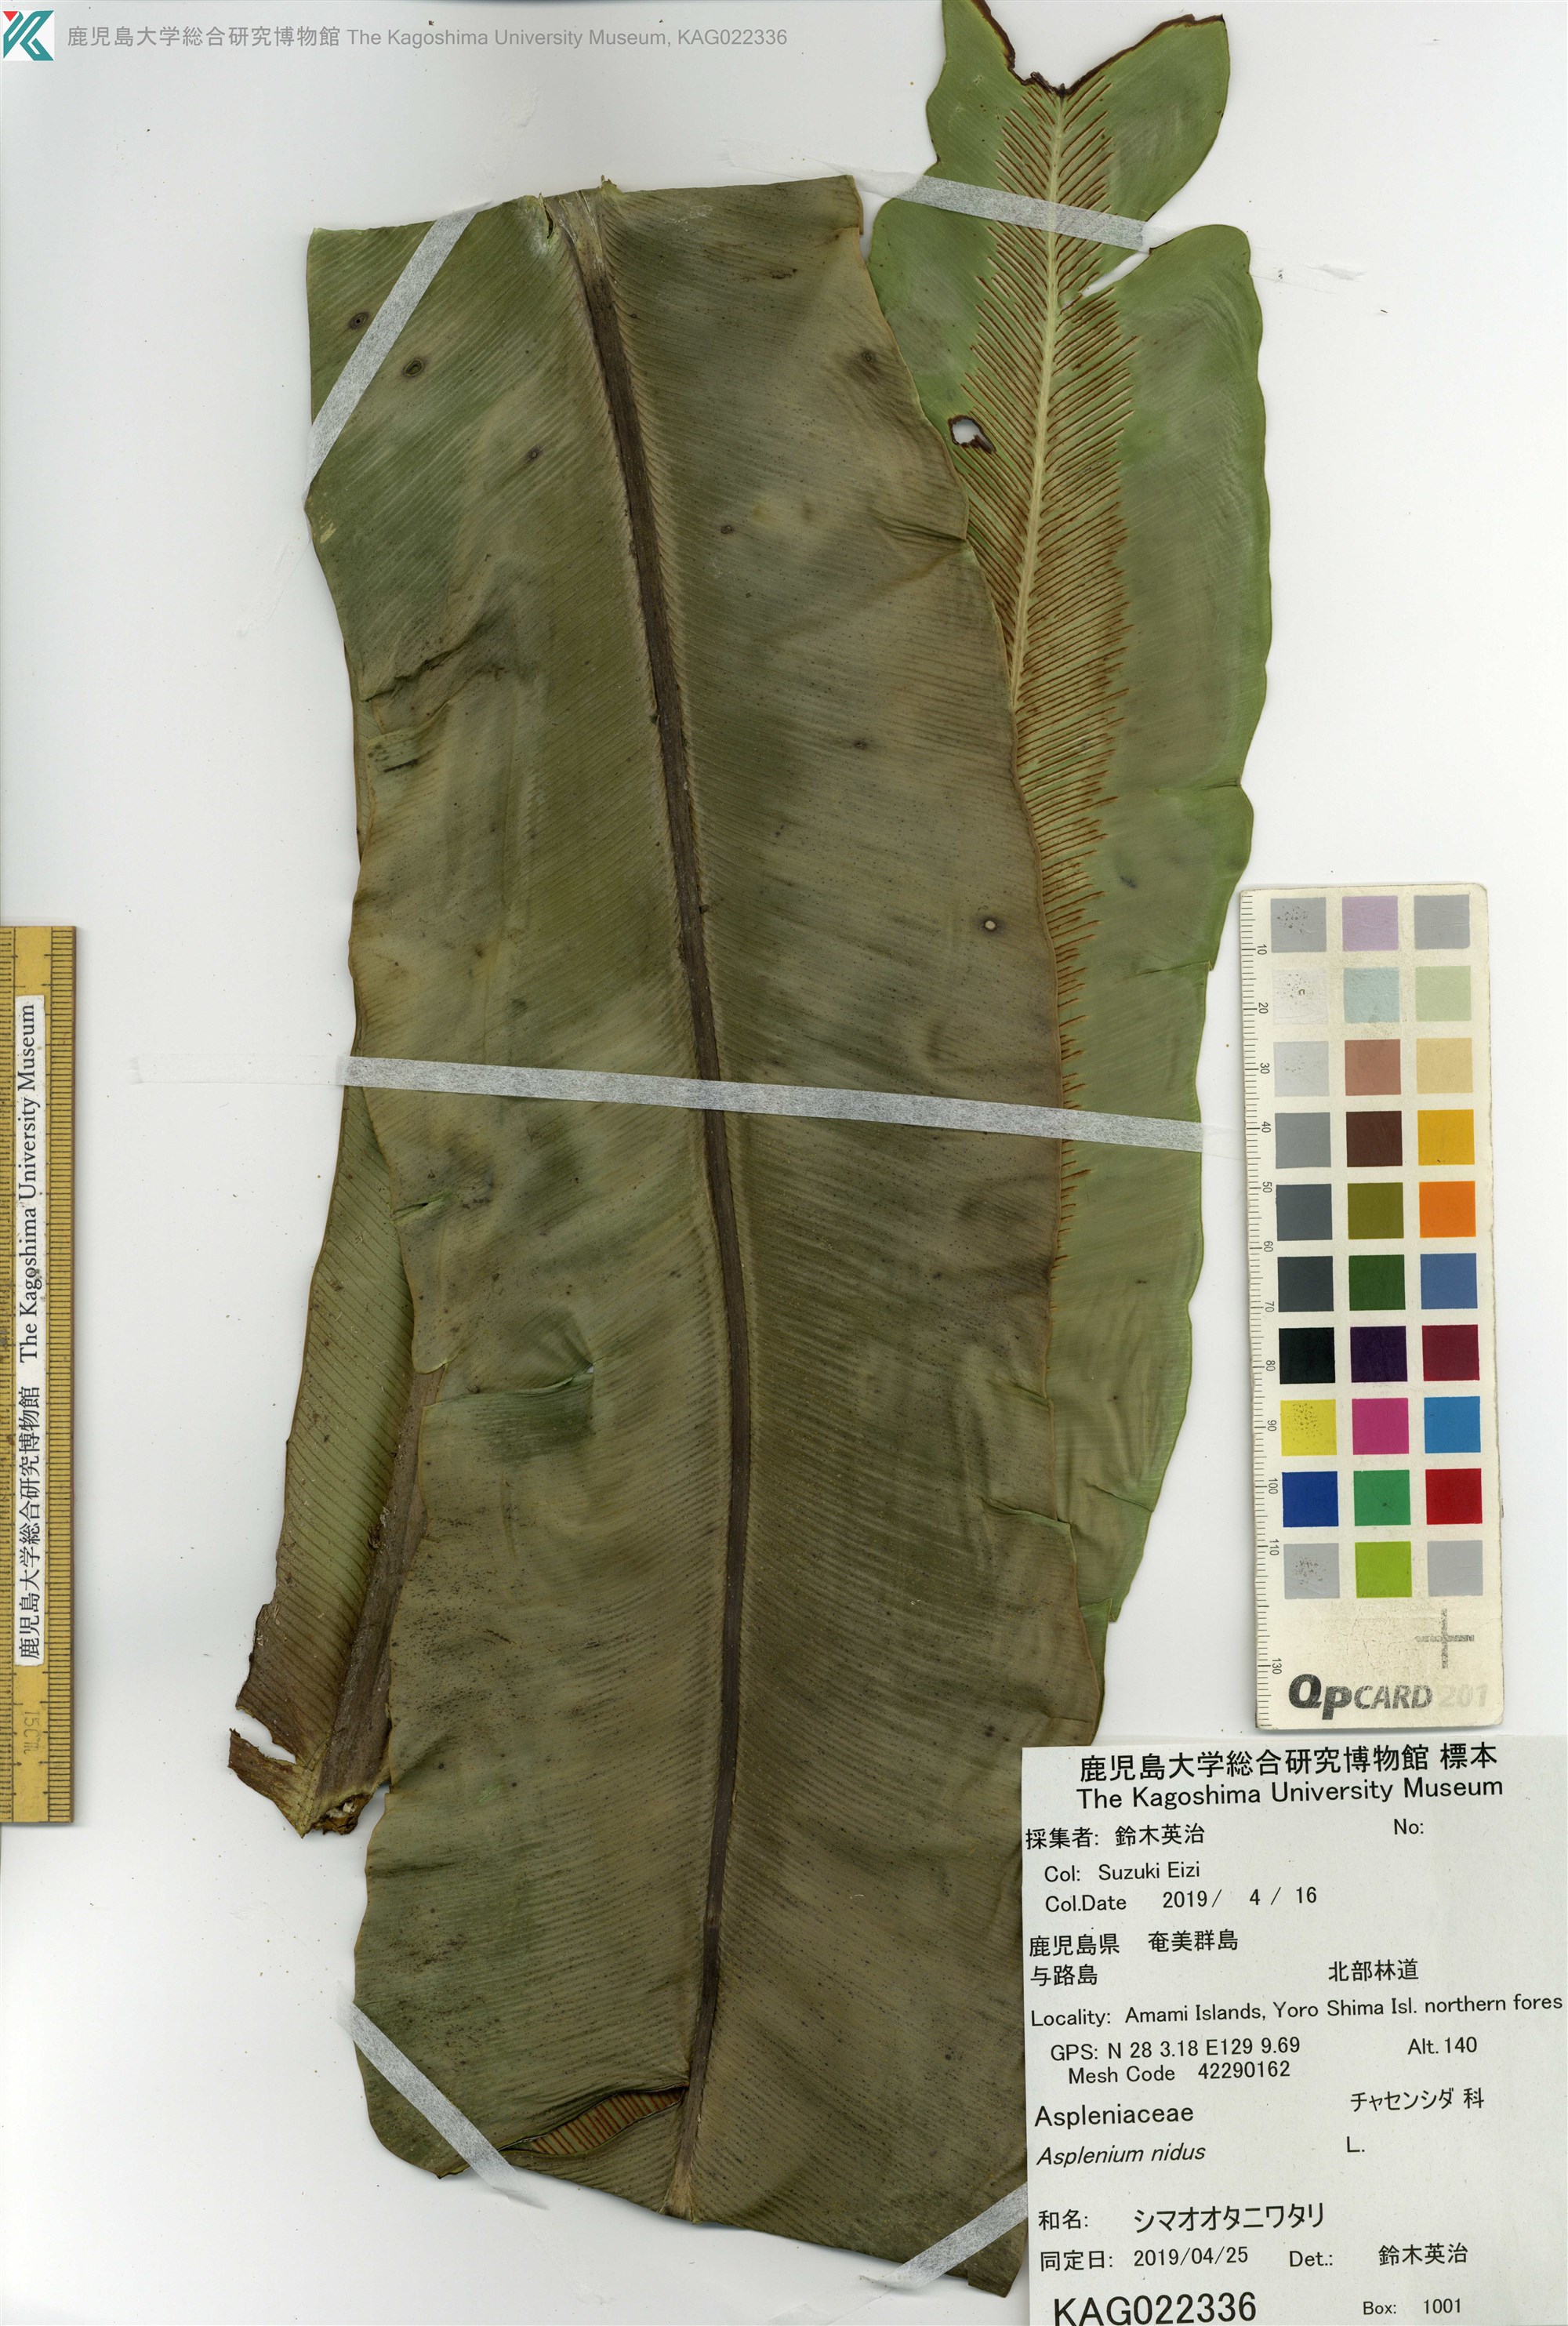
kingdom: Plantae
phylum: Tracheophyta
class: Polypodiopsida
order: Polypodiales
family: Aspleniaceae
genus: Asplenium
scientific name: Asplenium nidus
